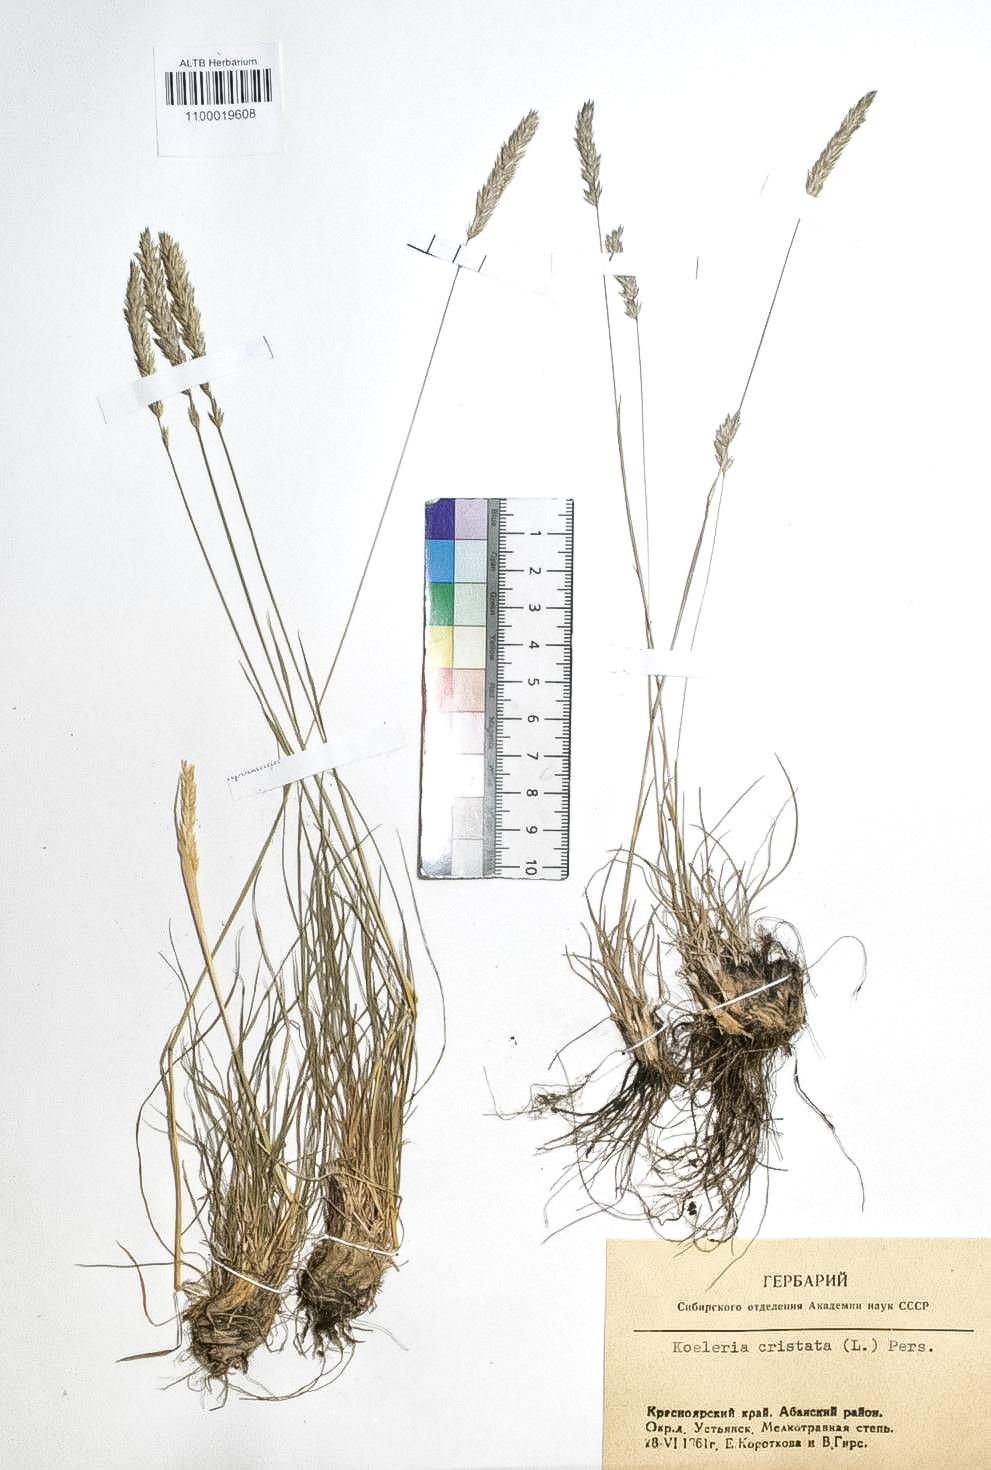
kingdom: Plantae
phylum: Tracheophyta
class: Liliopsida
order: Poales
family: Poaceae
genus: Koeleria
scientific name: Koeleria pyramidata
